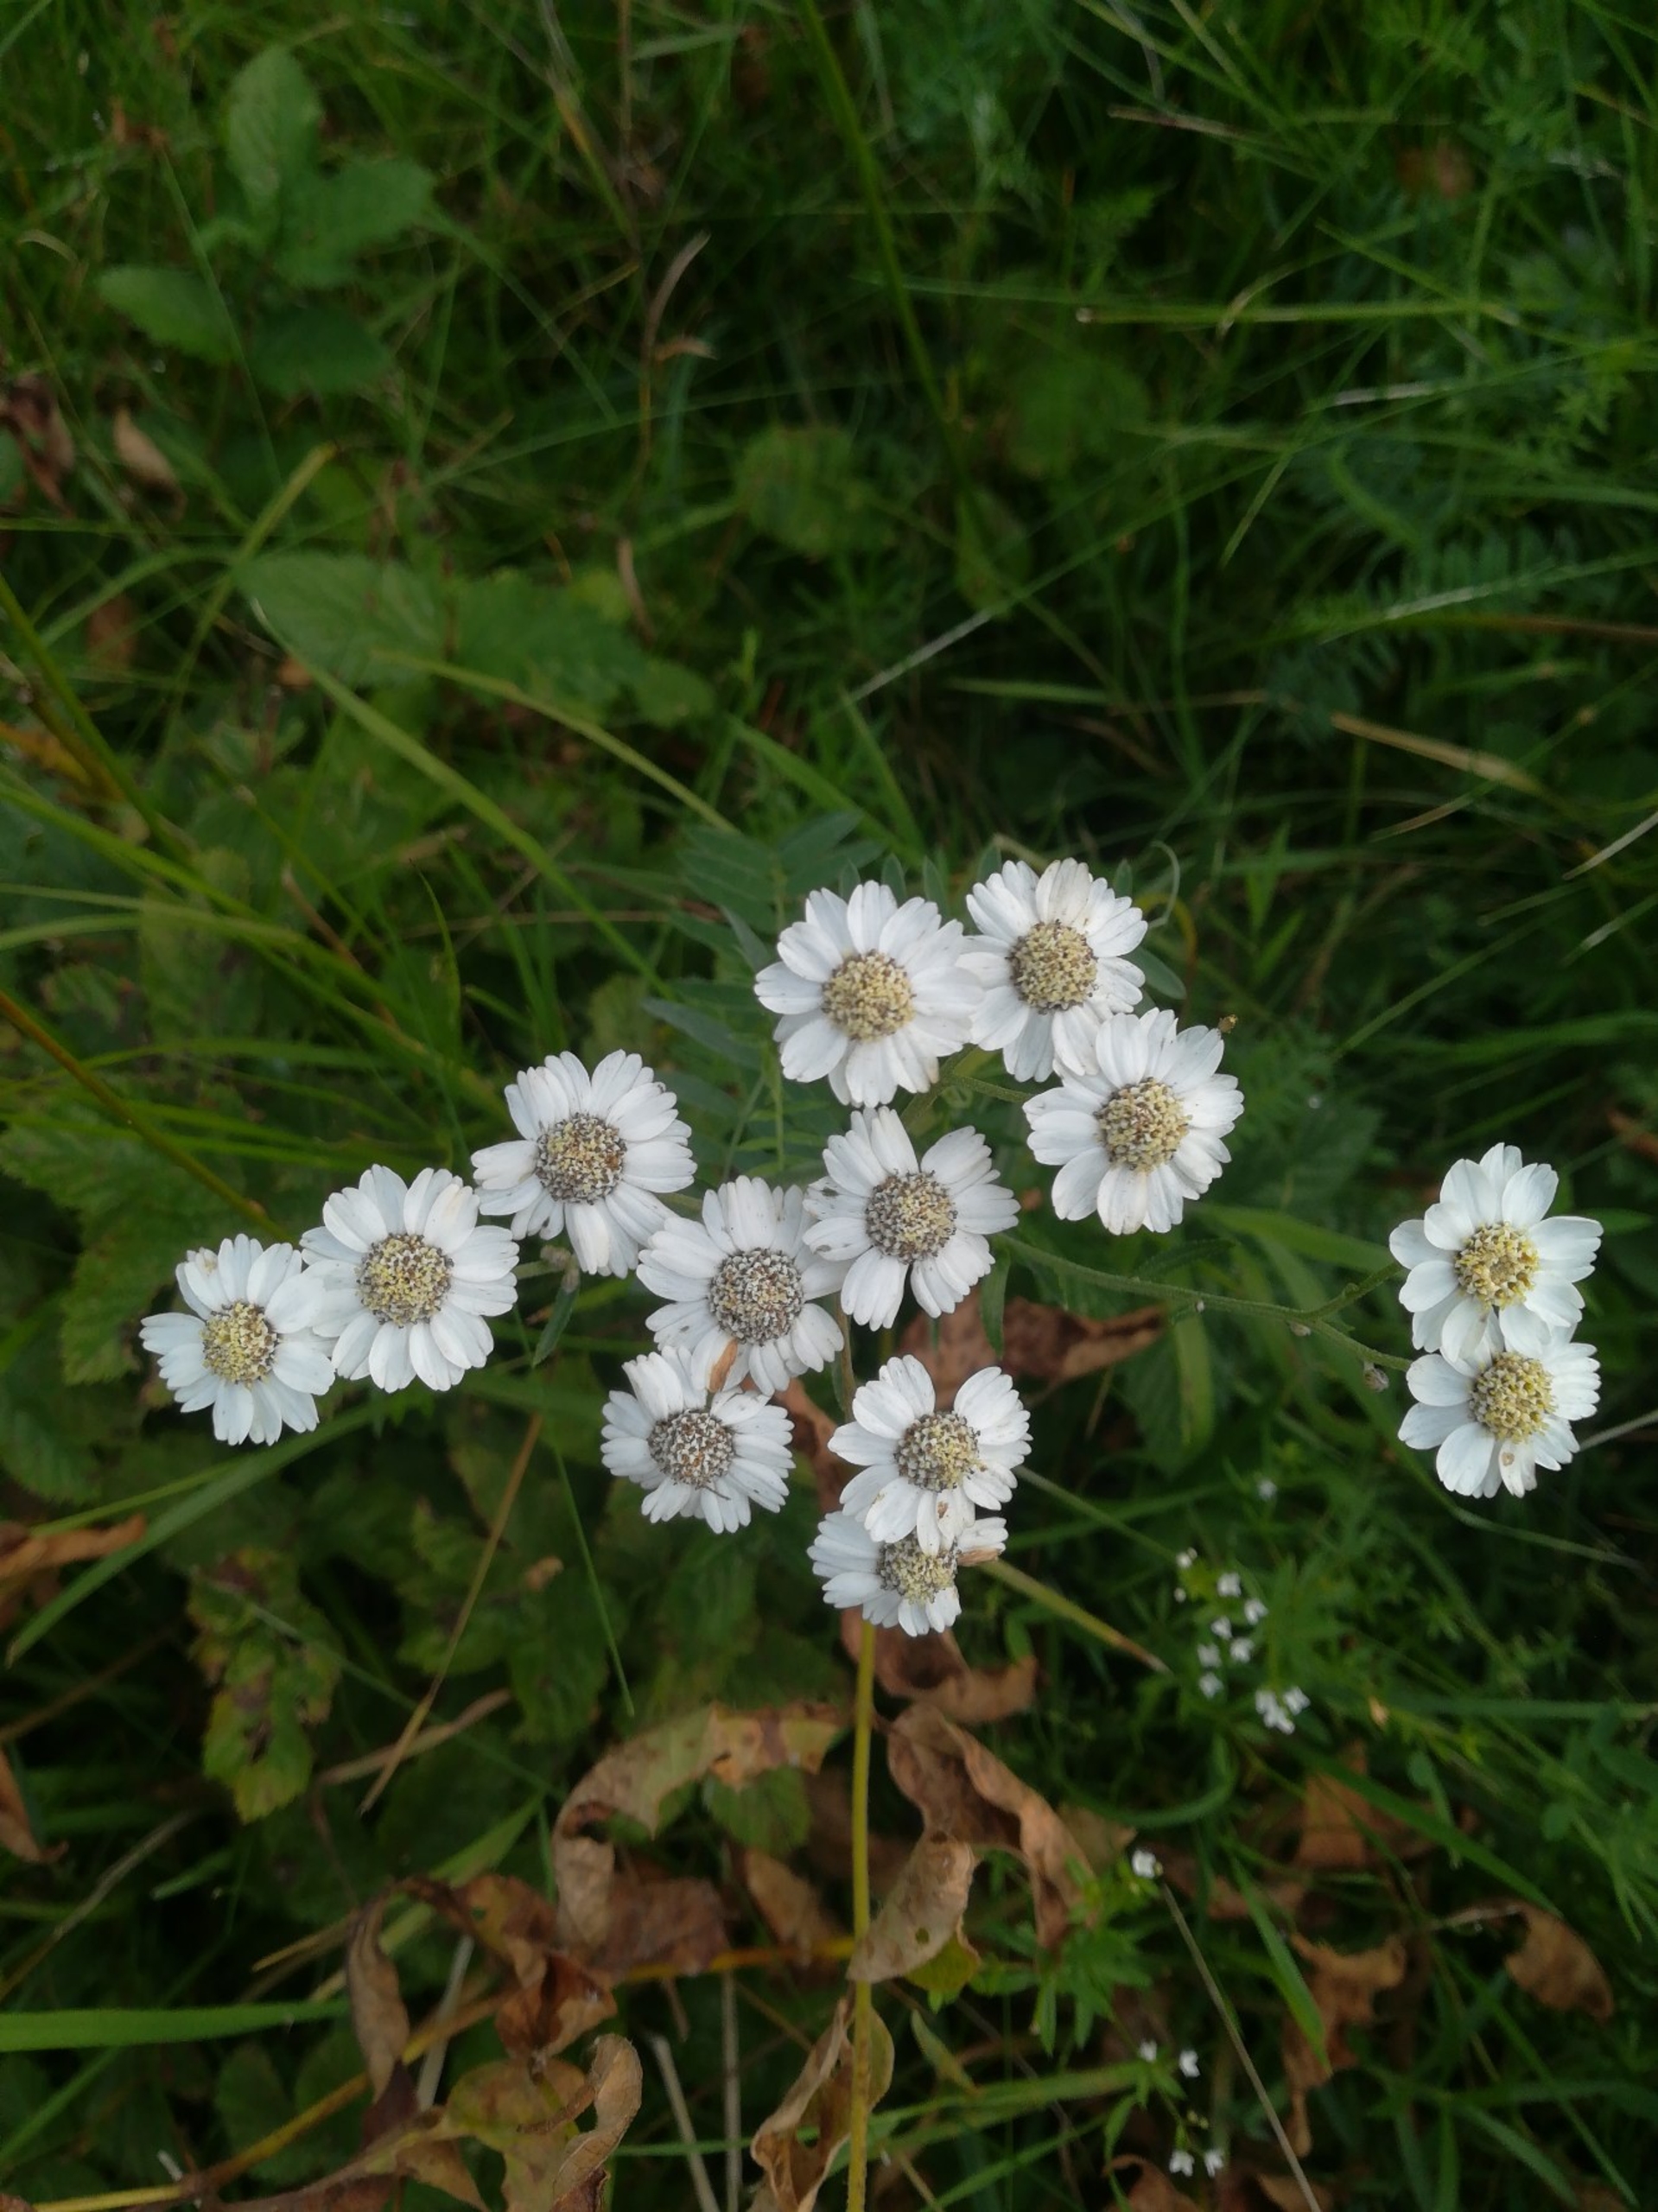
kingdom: Plantae
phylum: Tracheophyta
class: Magnoliopsida
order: Asterales
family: Asteraceae
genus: Achillea
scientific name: Achillea ptarmica
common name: Nyse-røllike
